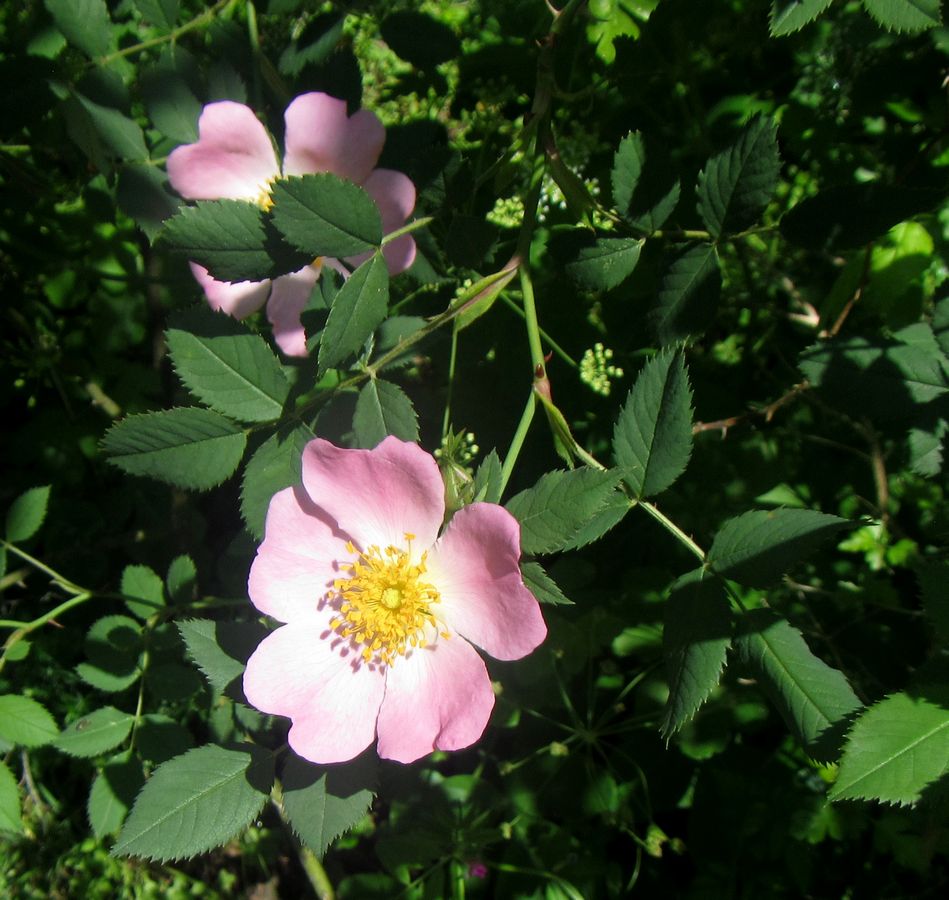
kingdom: Plantae
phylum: Tracheophyta
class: Magnoliopsida
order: Rosales
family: Rosaceae
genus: Rosa
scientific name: Rosa
